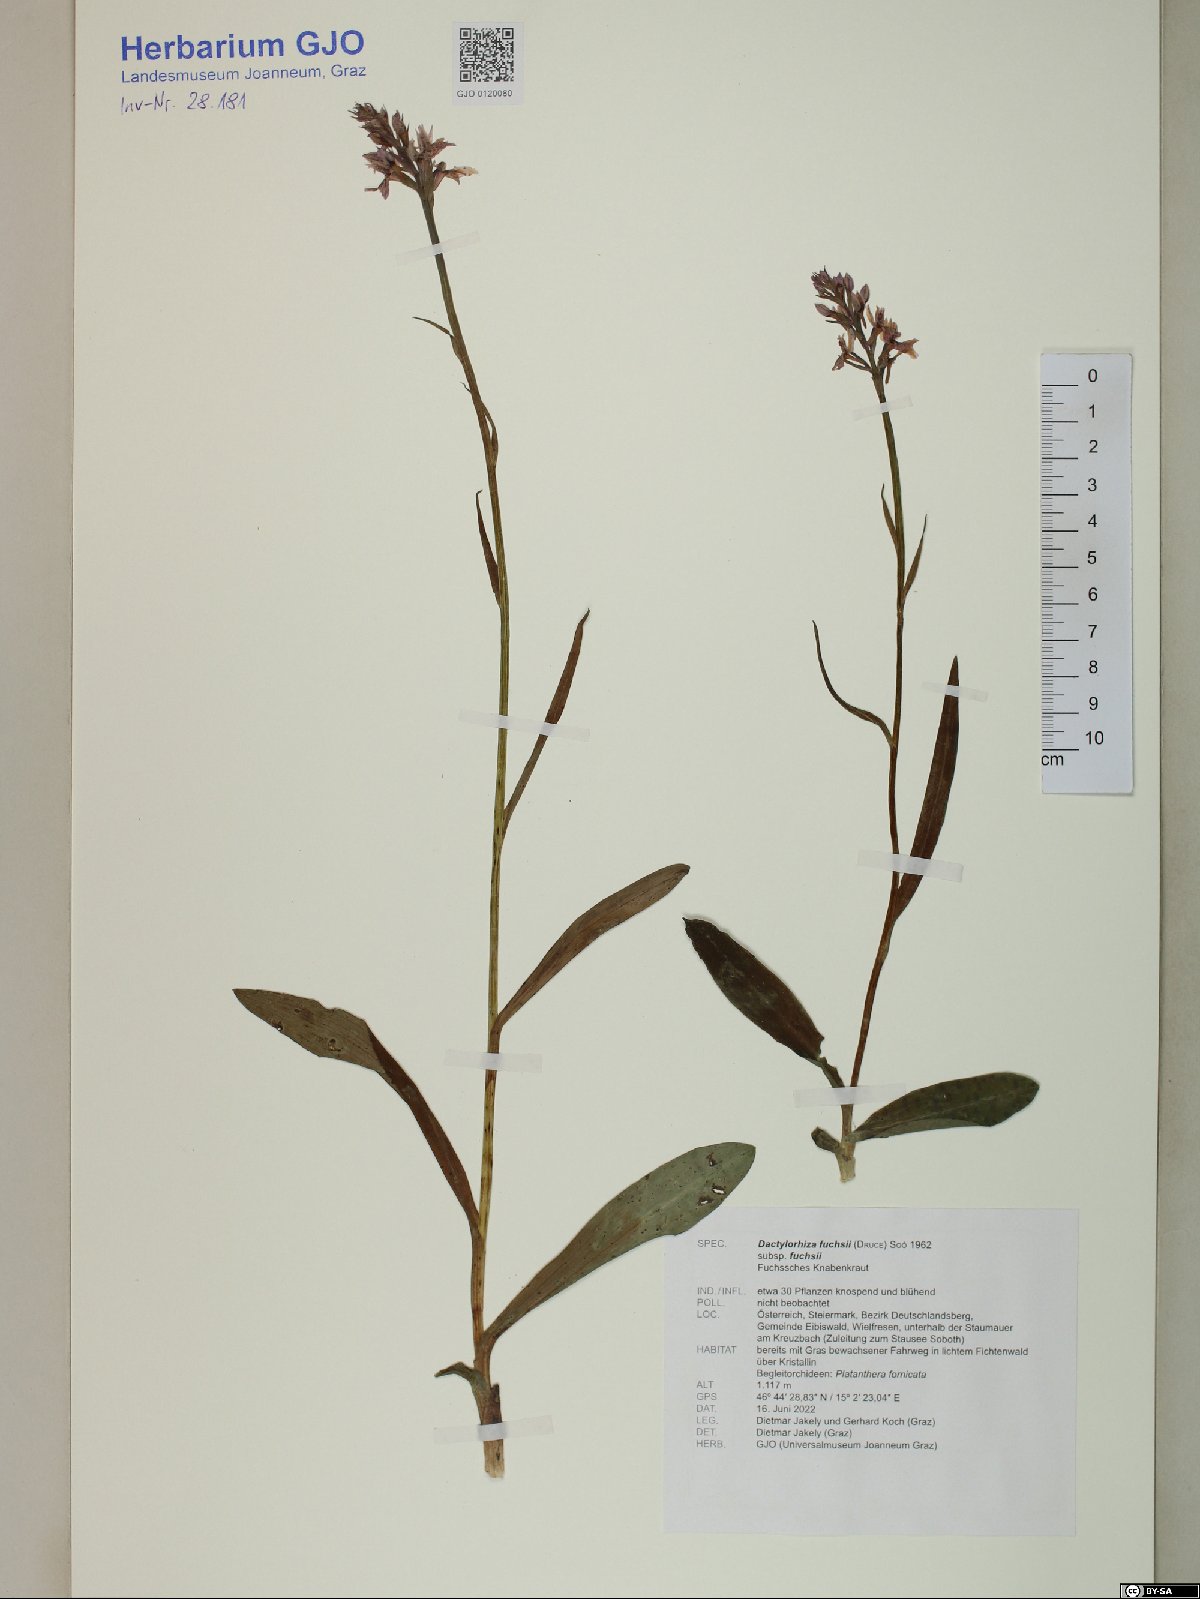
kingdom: Plantae
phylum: Tracheophyta
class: Liliopsida
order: Asparagales
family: Orchidaceae
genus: Dactylorhiza
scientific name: Dactylorhiza maculata
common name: Heath spotted-orchid
